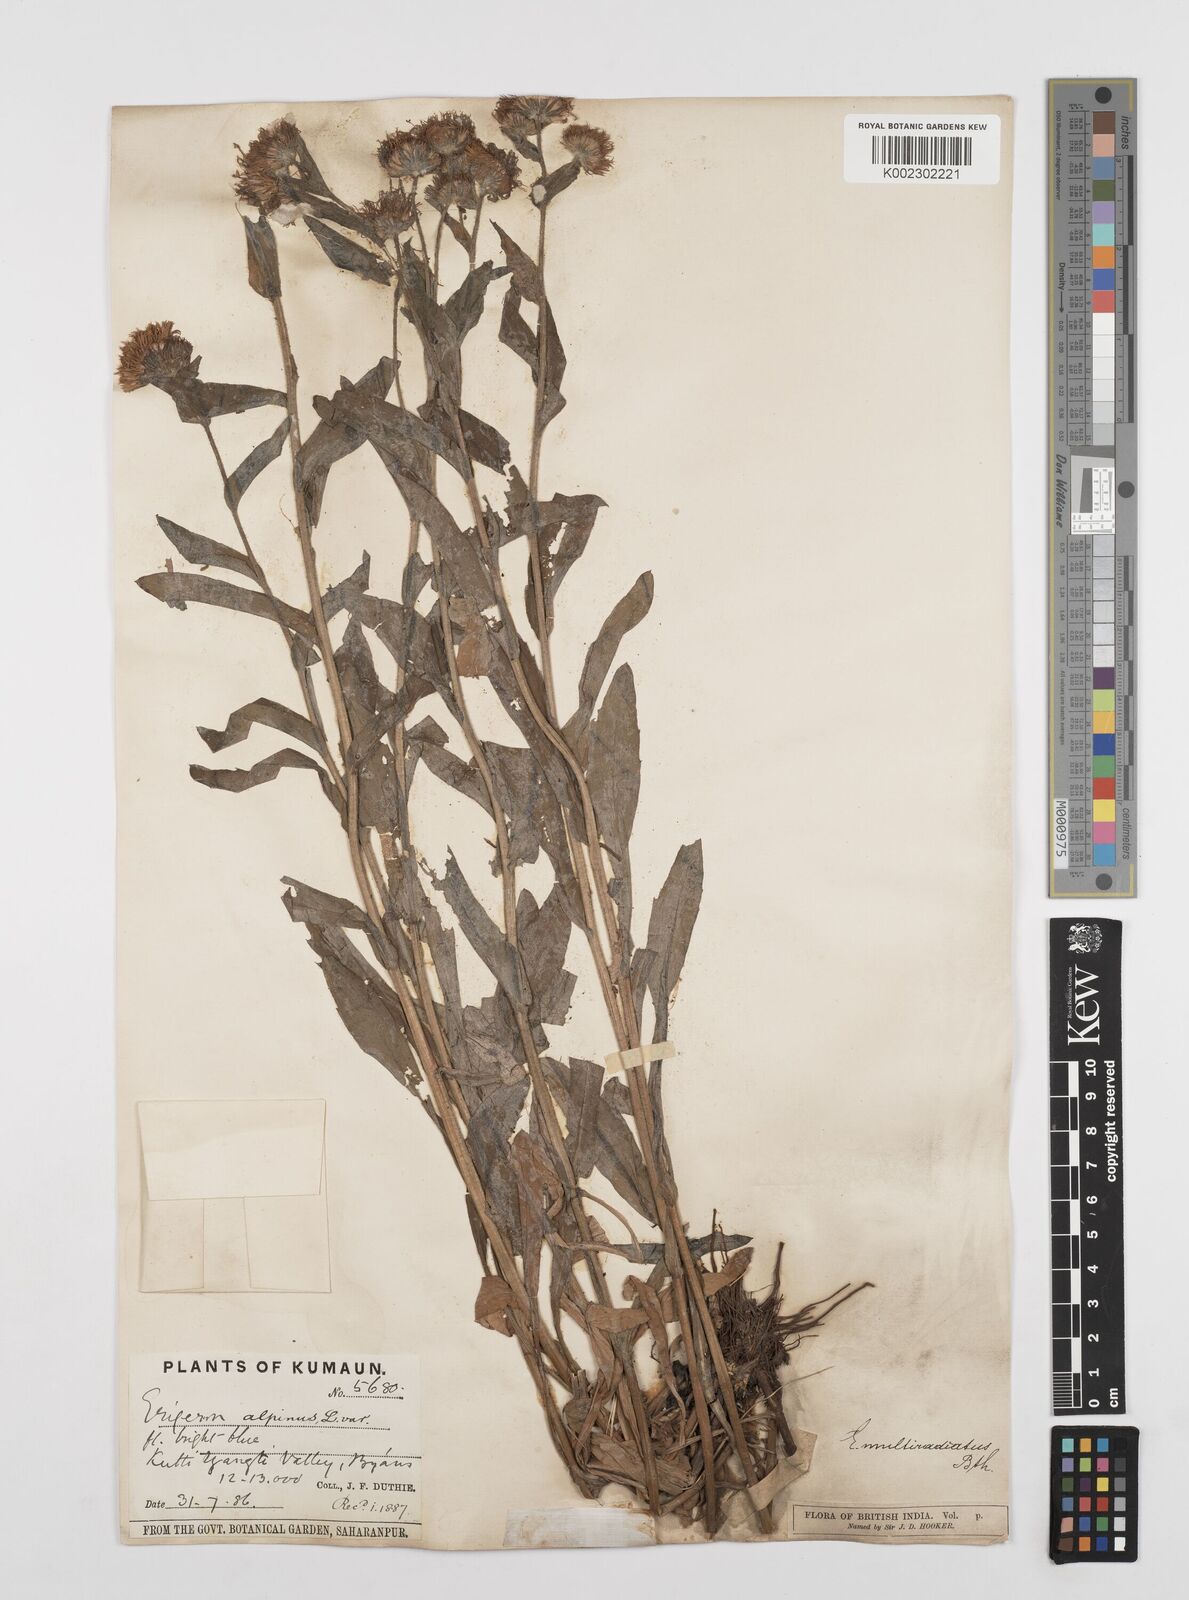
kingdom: Plantae
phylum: Tracheophyta
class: Magnoliopsida
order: Asterales
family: Asteraceae
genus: Erigeron
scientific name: Erigeron acris
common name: Blue fleabane
